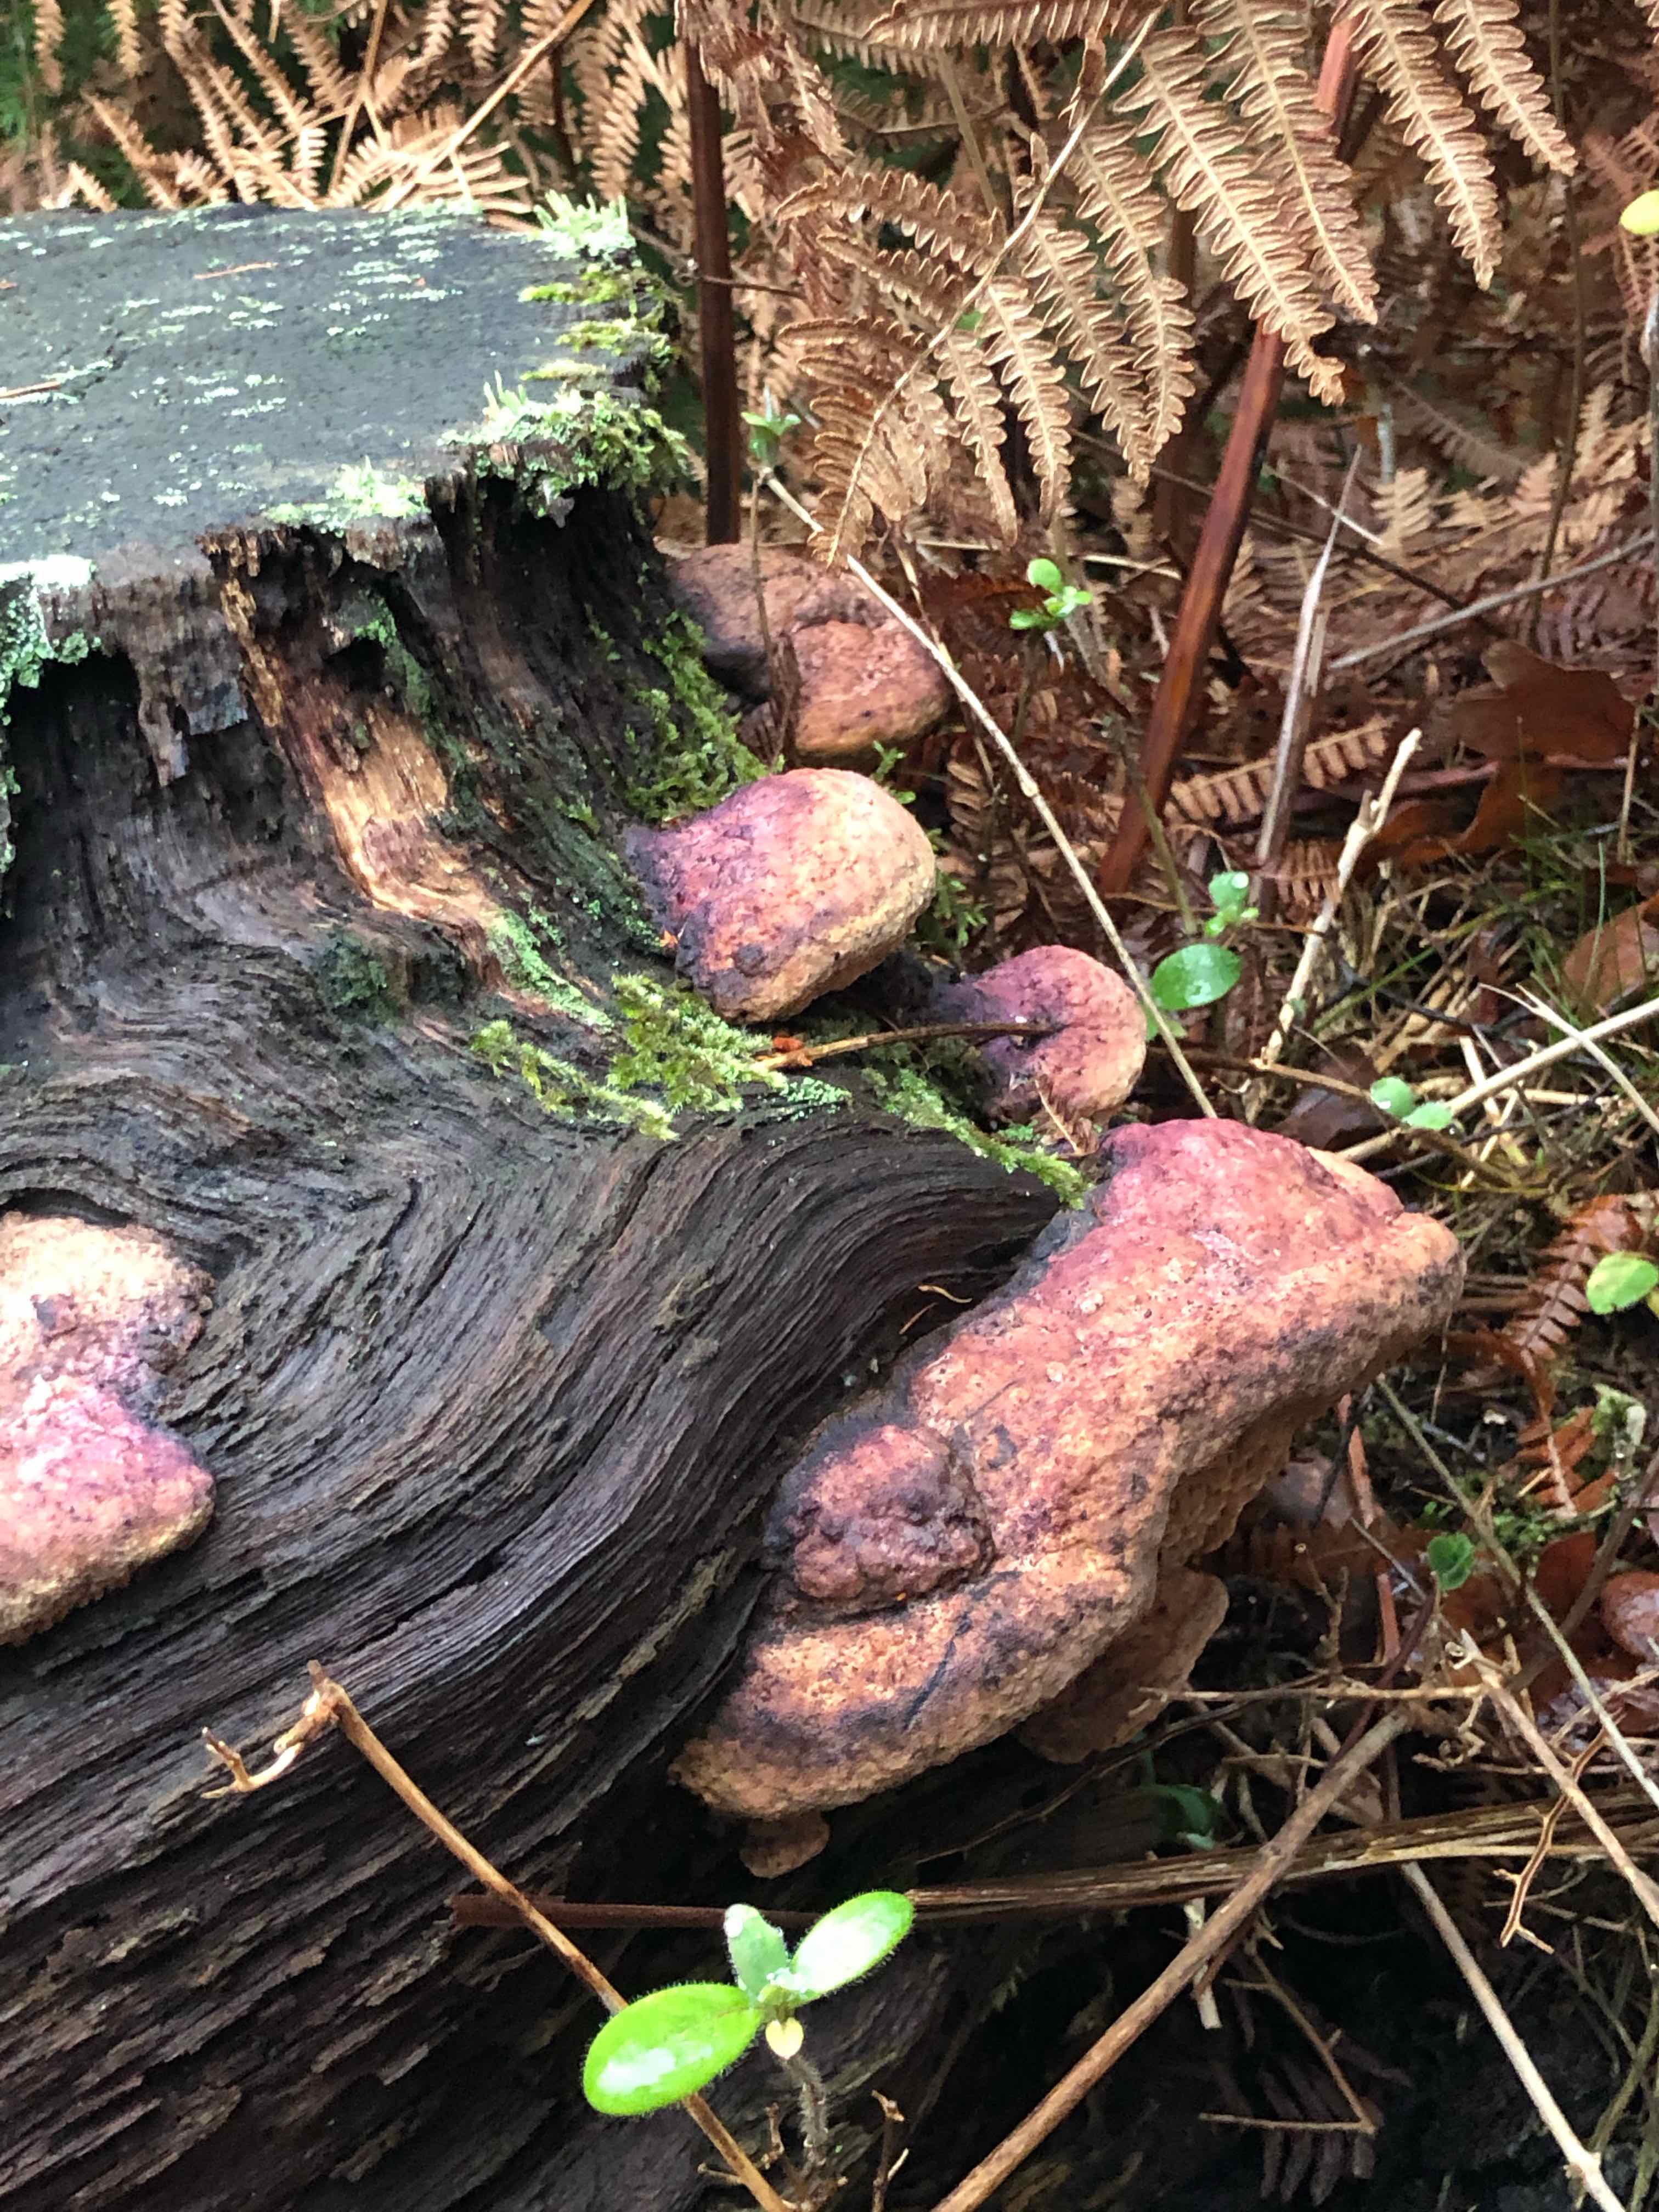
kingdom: Fungi
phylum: Basidiomycota
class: Agaricomycetes
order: Polyporales
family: Fomitopsidaceae
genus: Fomitopsis
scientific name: Fomitopsis pinicola
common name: randbæltet hovporesvamp
